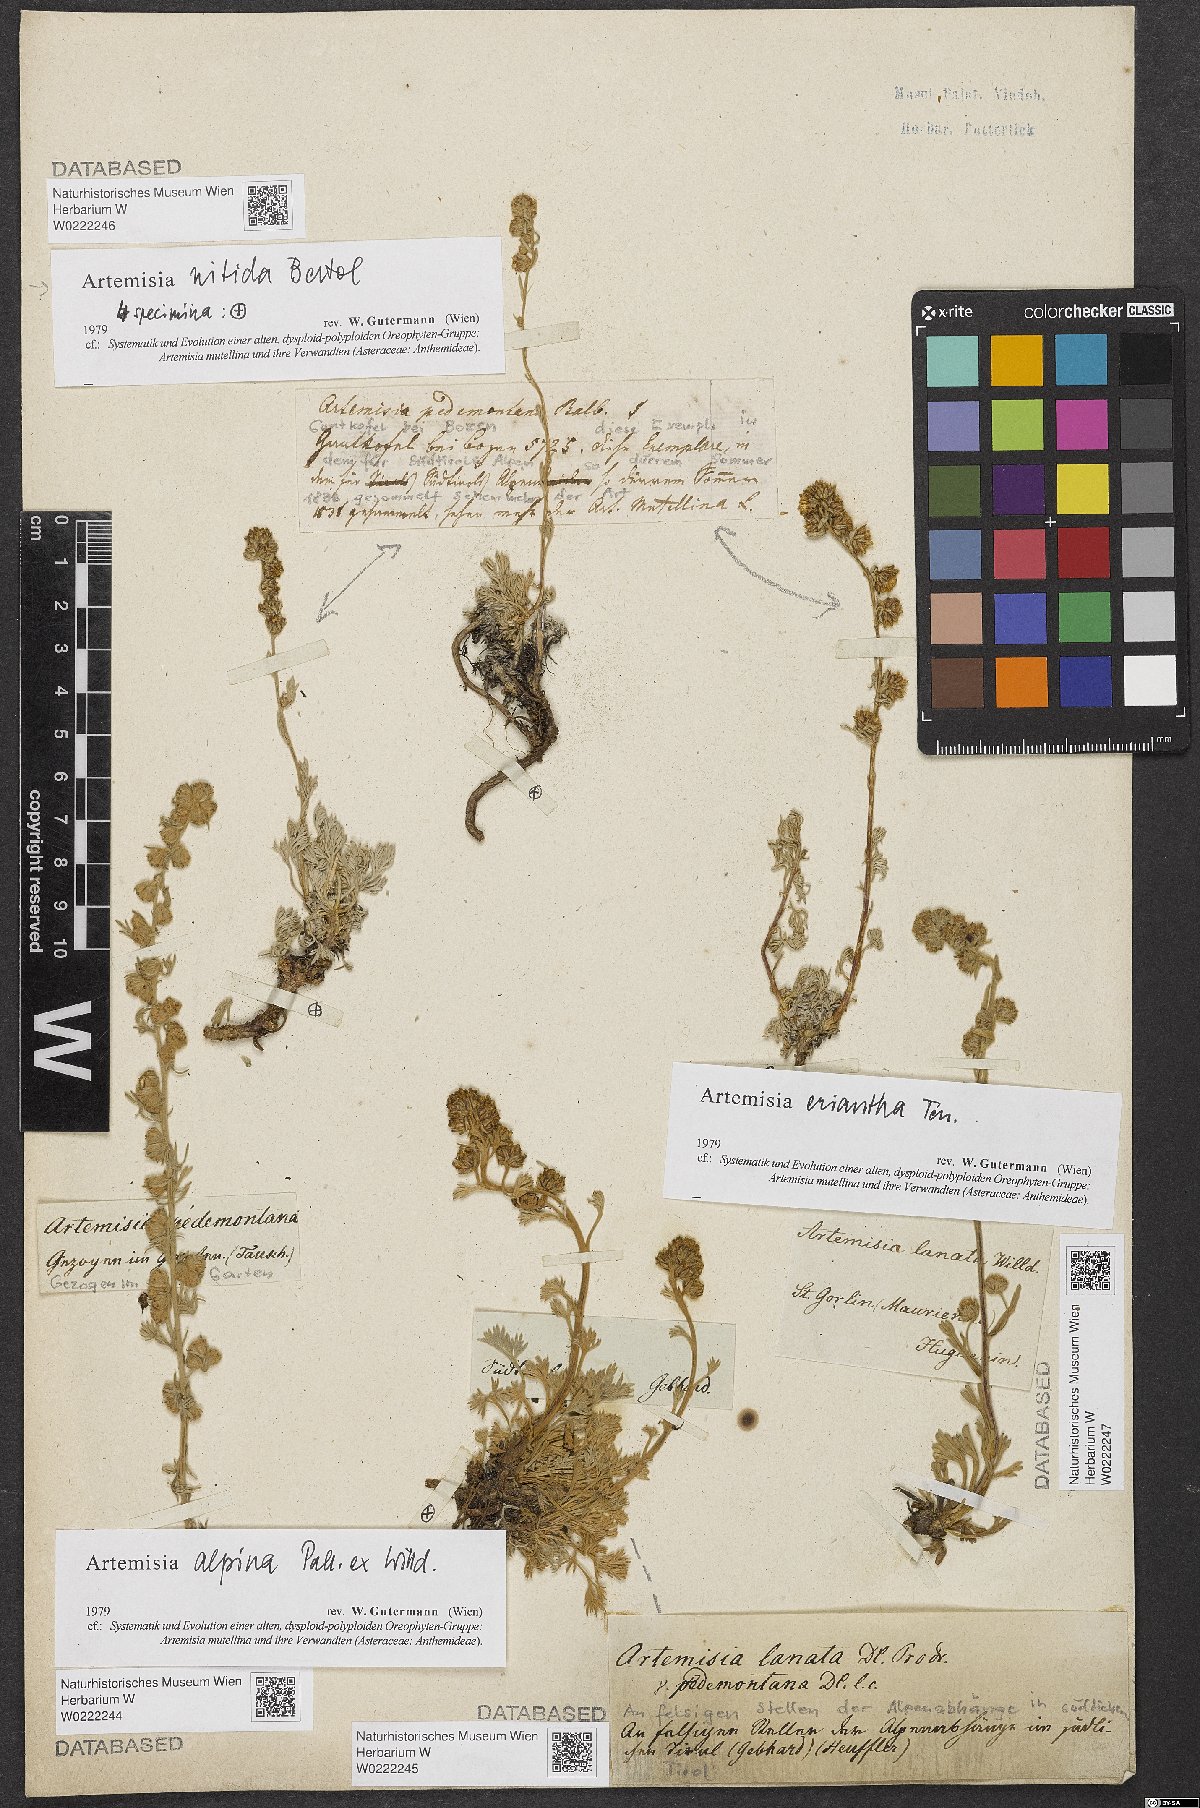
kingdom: Plantae
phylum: Tracheophyta
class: Magnoliopsida
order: Asterales
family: Asteraceae
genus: Artemisia
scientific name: Artemisia eriantha
